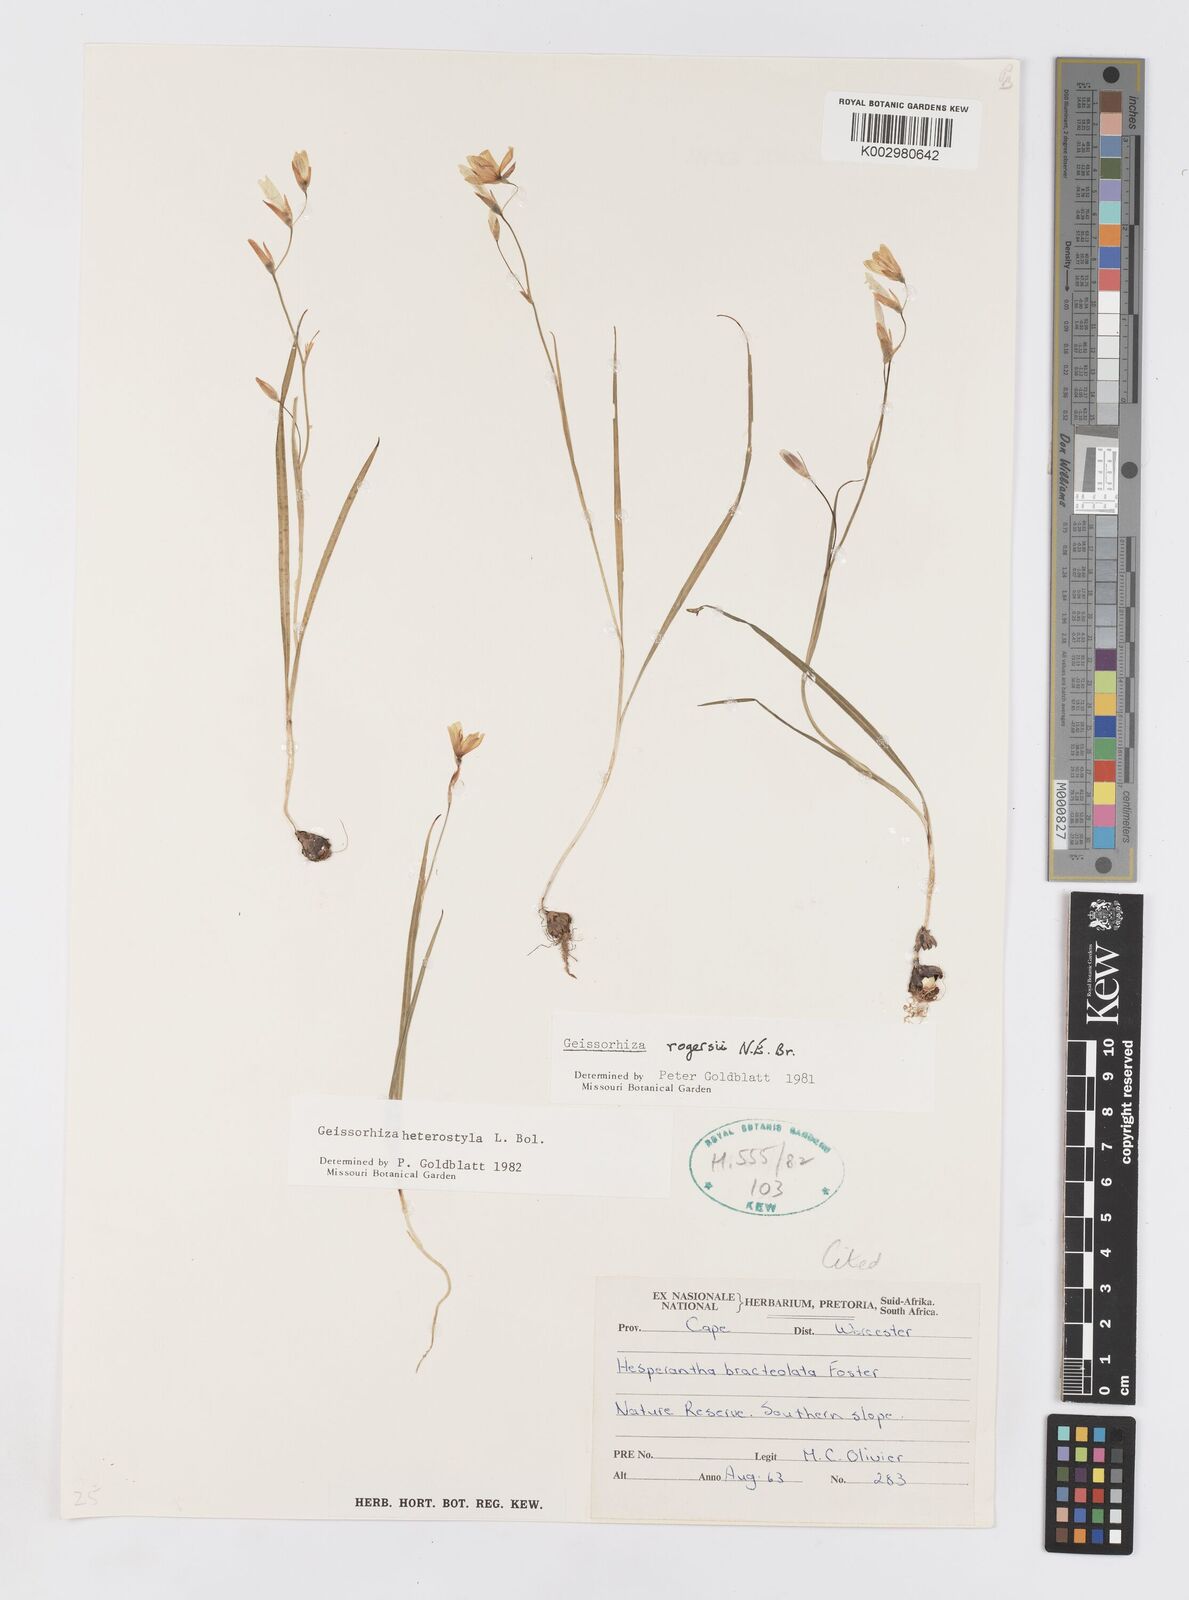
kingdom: Plantae
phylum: Tracheophyta
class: Liliopsida
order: Asparagales
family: Iridaceae
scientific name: Iridaceae
